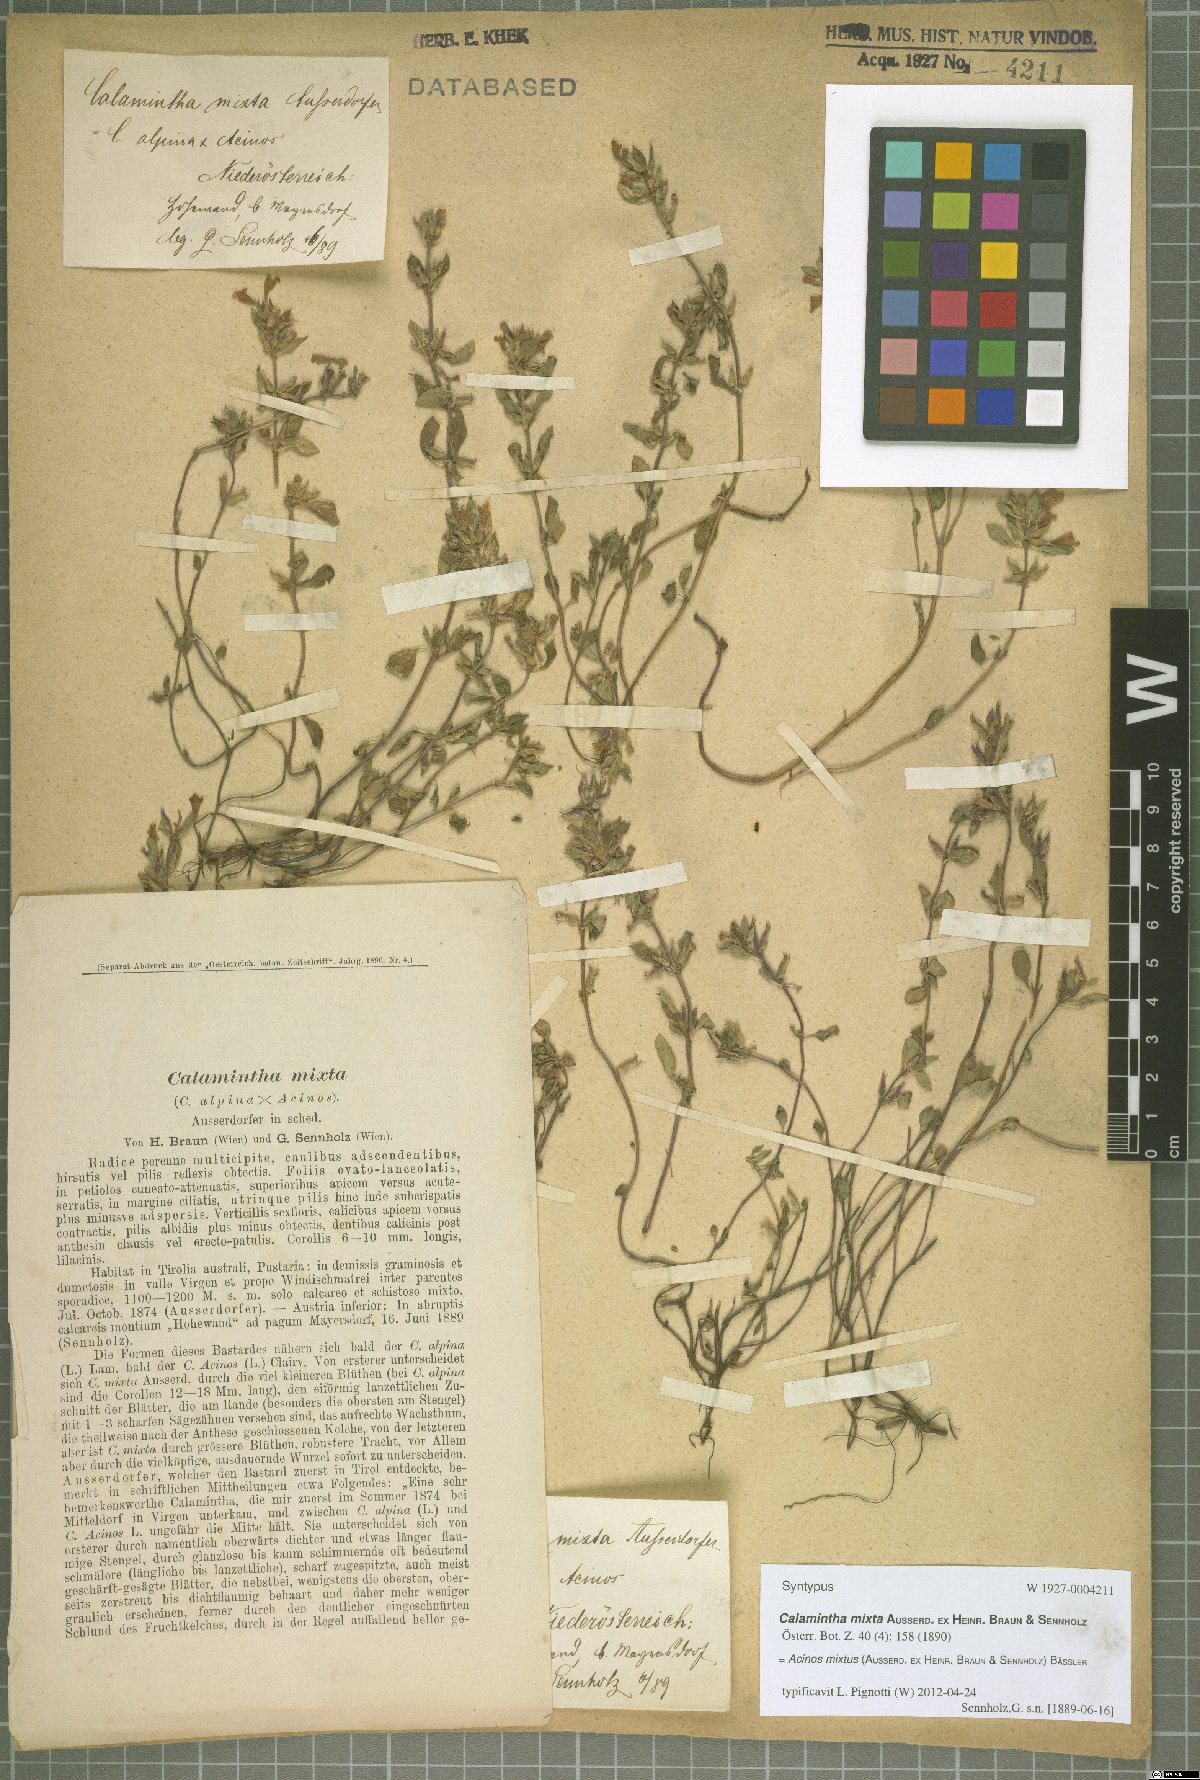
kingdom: Plantae
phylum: Tracheophyta
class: Magnoliopsida
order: Lamiales
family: Lamiaceae
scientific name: Lamiaceae
